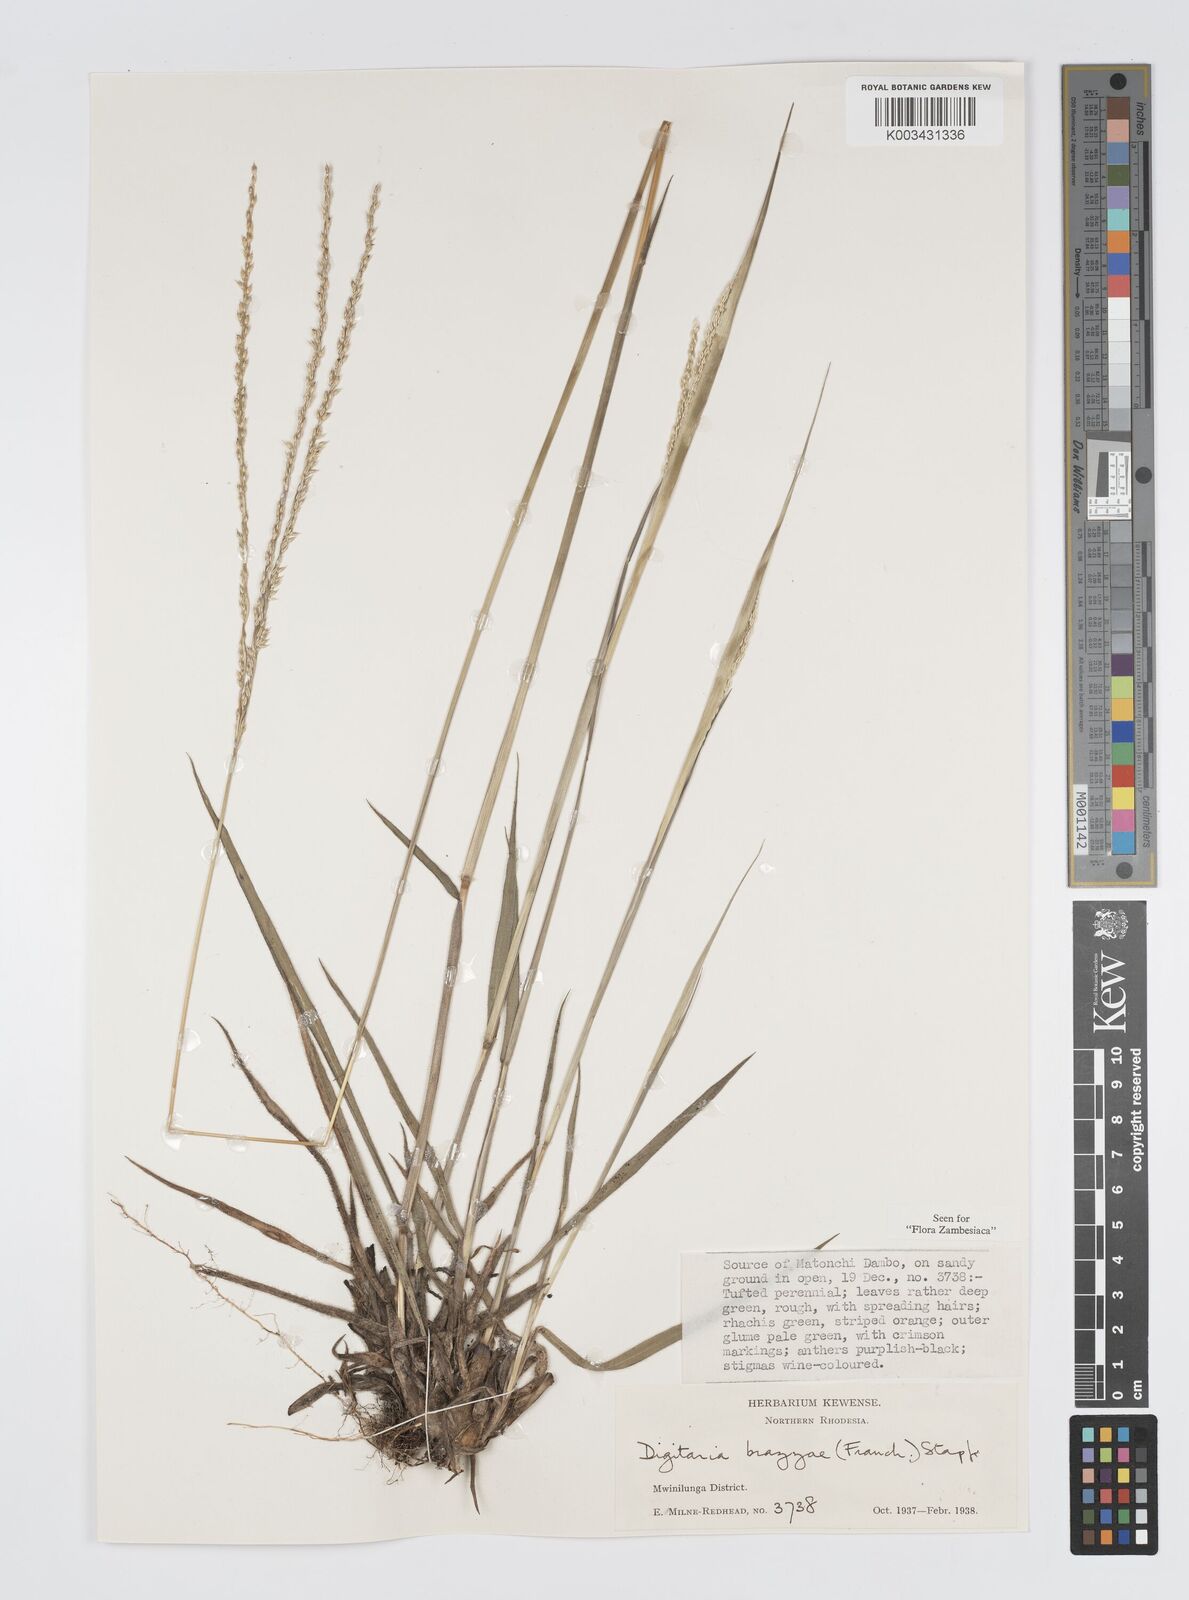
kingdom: Plantae
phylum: Tracheophyta
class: Liliopsida
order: Poales
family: Poaceae
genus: Digitaria
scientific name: Digitaria brazzae
